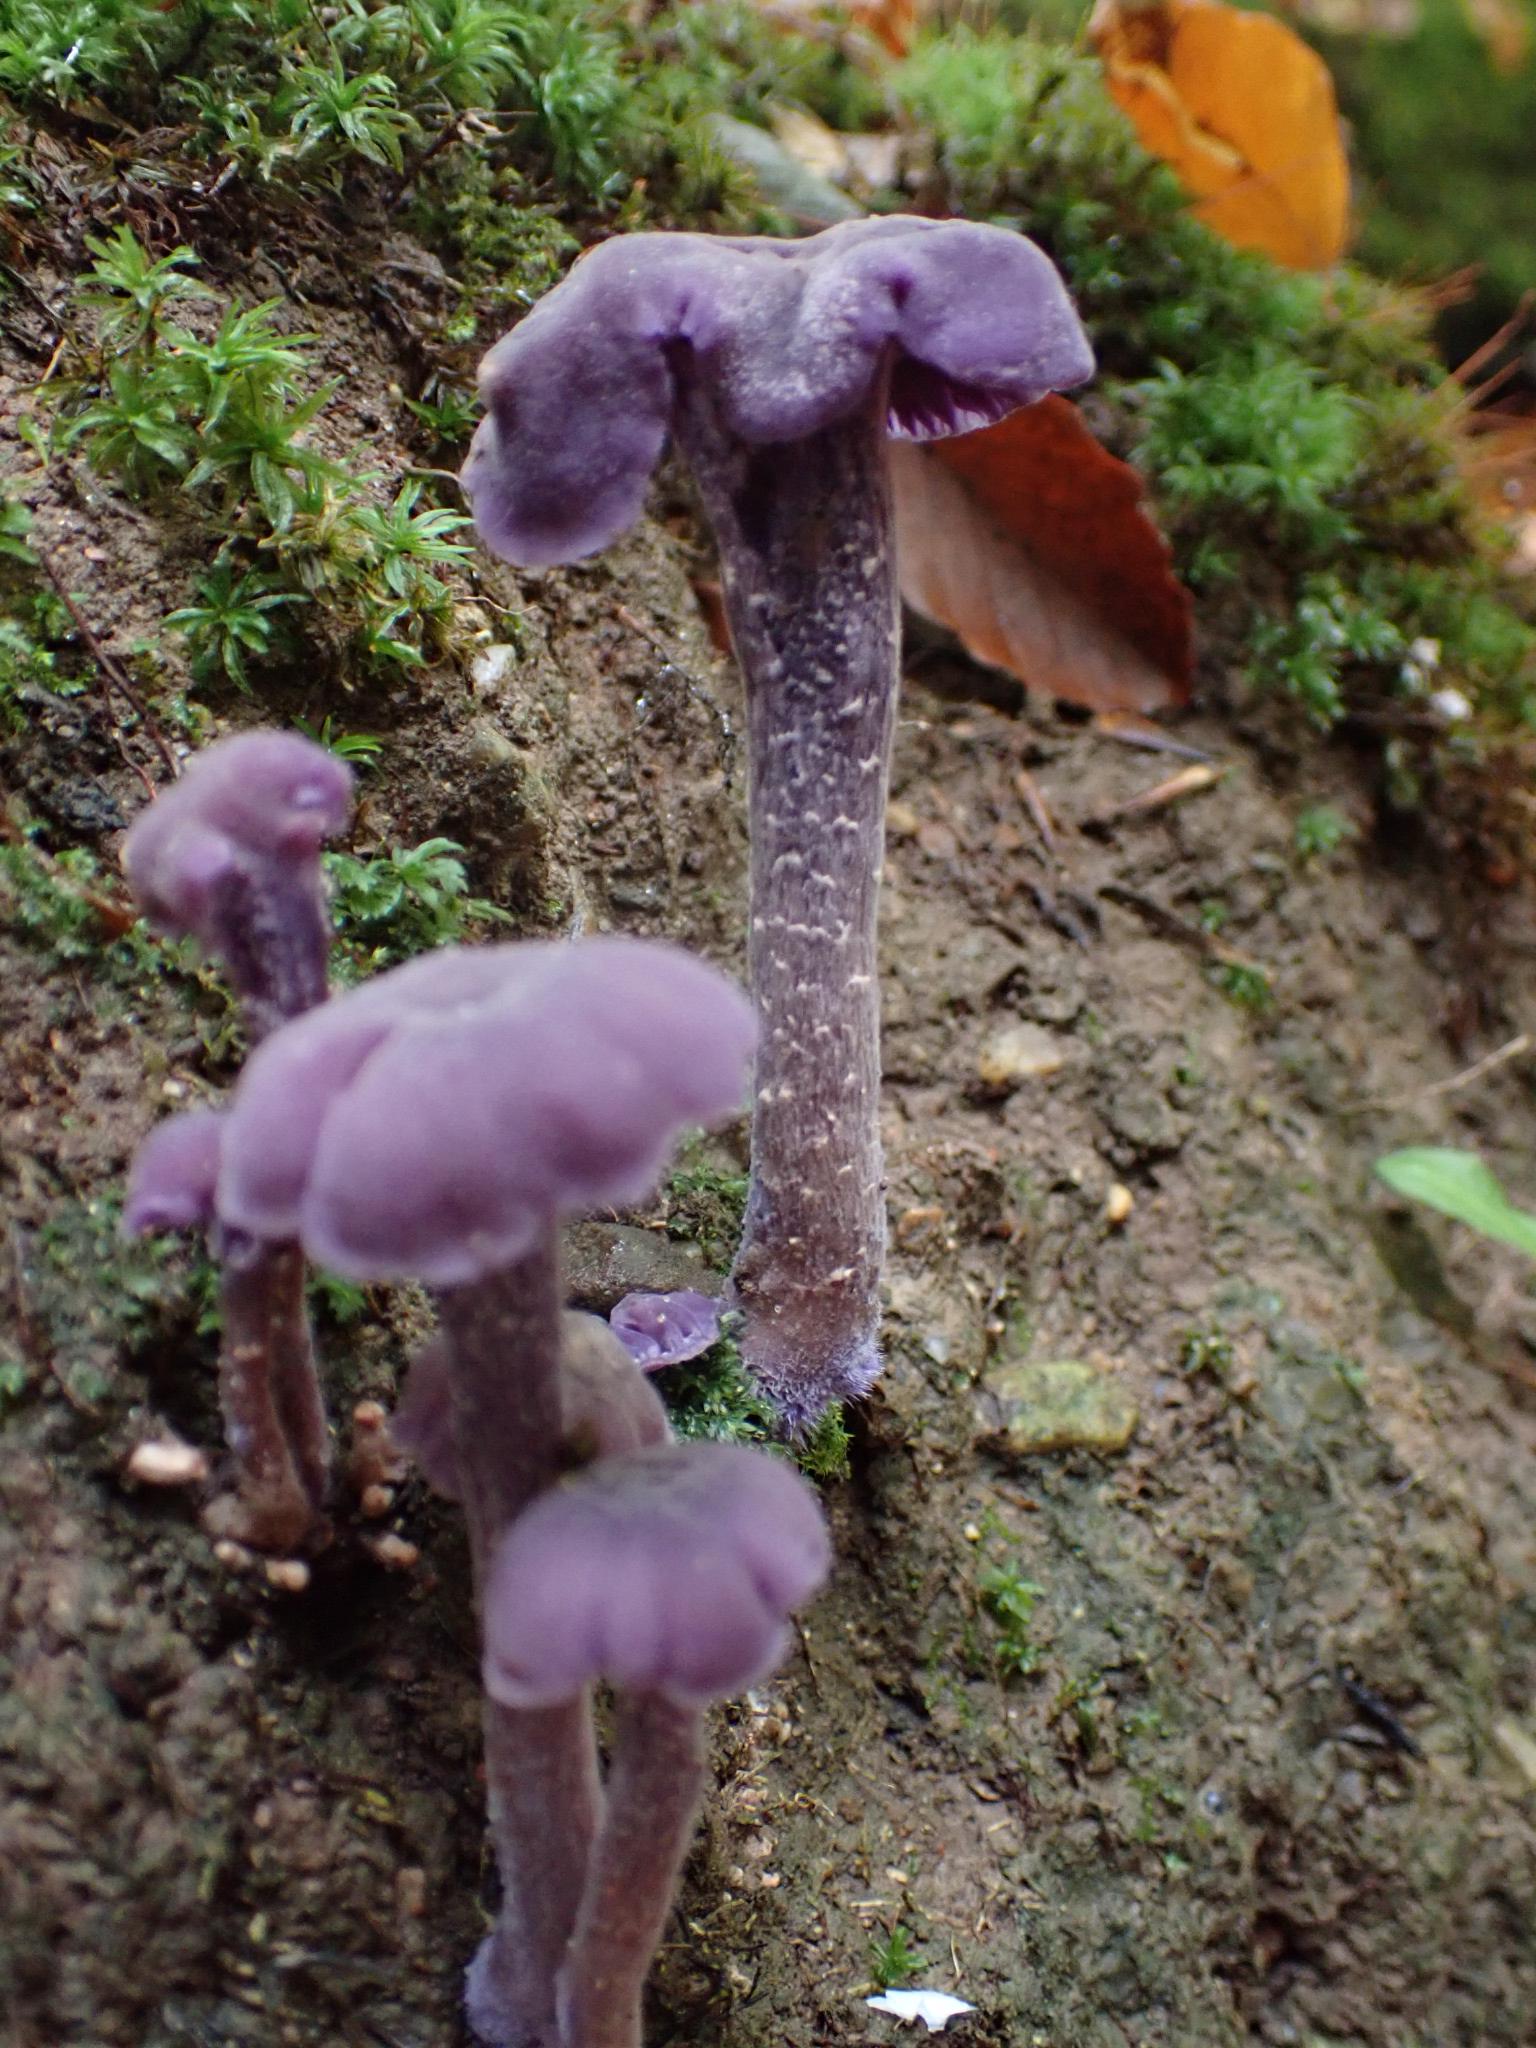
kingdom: Fungi
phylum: Basidiomycota
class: Agaricomycetes
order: Agaricales
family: Hydnangiaceae
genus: Laccaria
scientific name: Laccaria amethystina
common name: violet ametysthat
